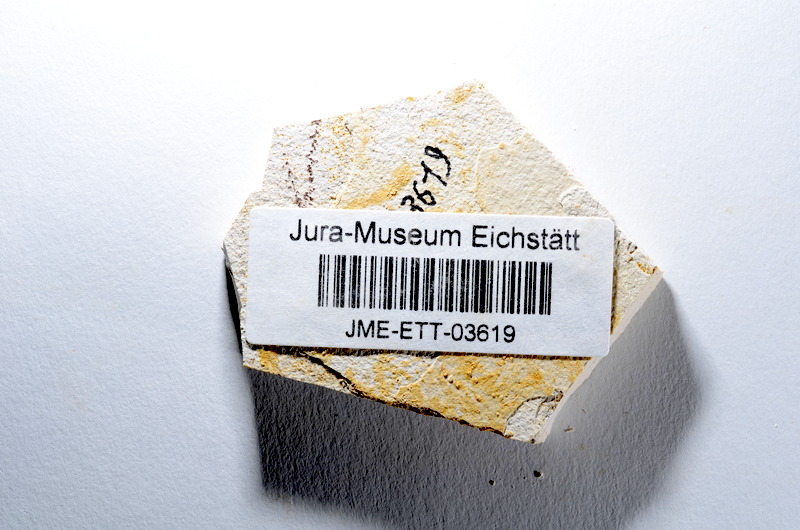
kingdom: Animalia
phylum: Chordata
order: Salmoniformes
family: Orthogonikleithridae
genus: Orthogonikleithrus
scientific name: Orthogonikleithrus hoelli
